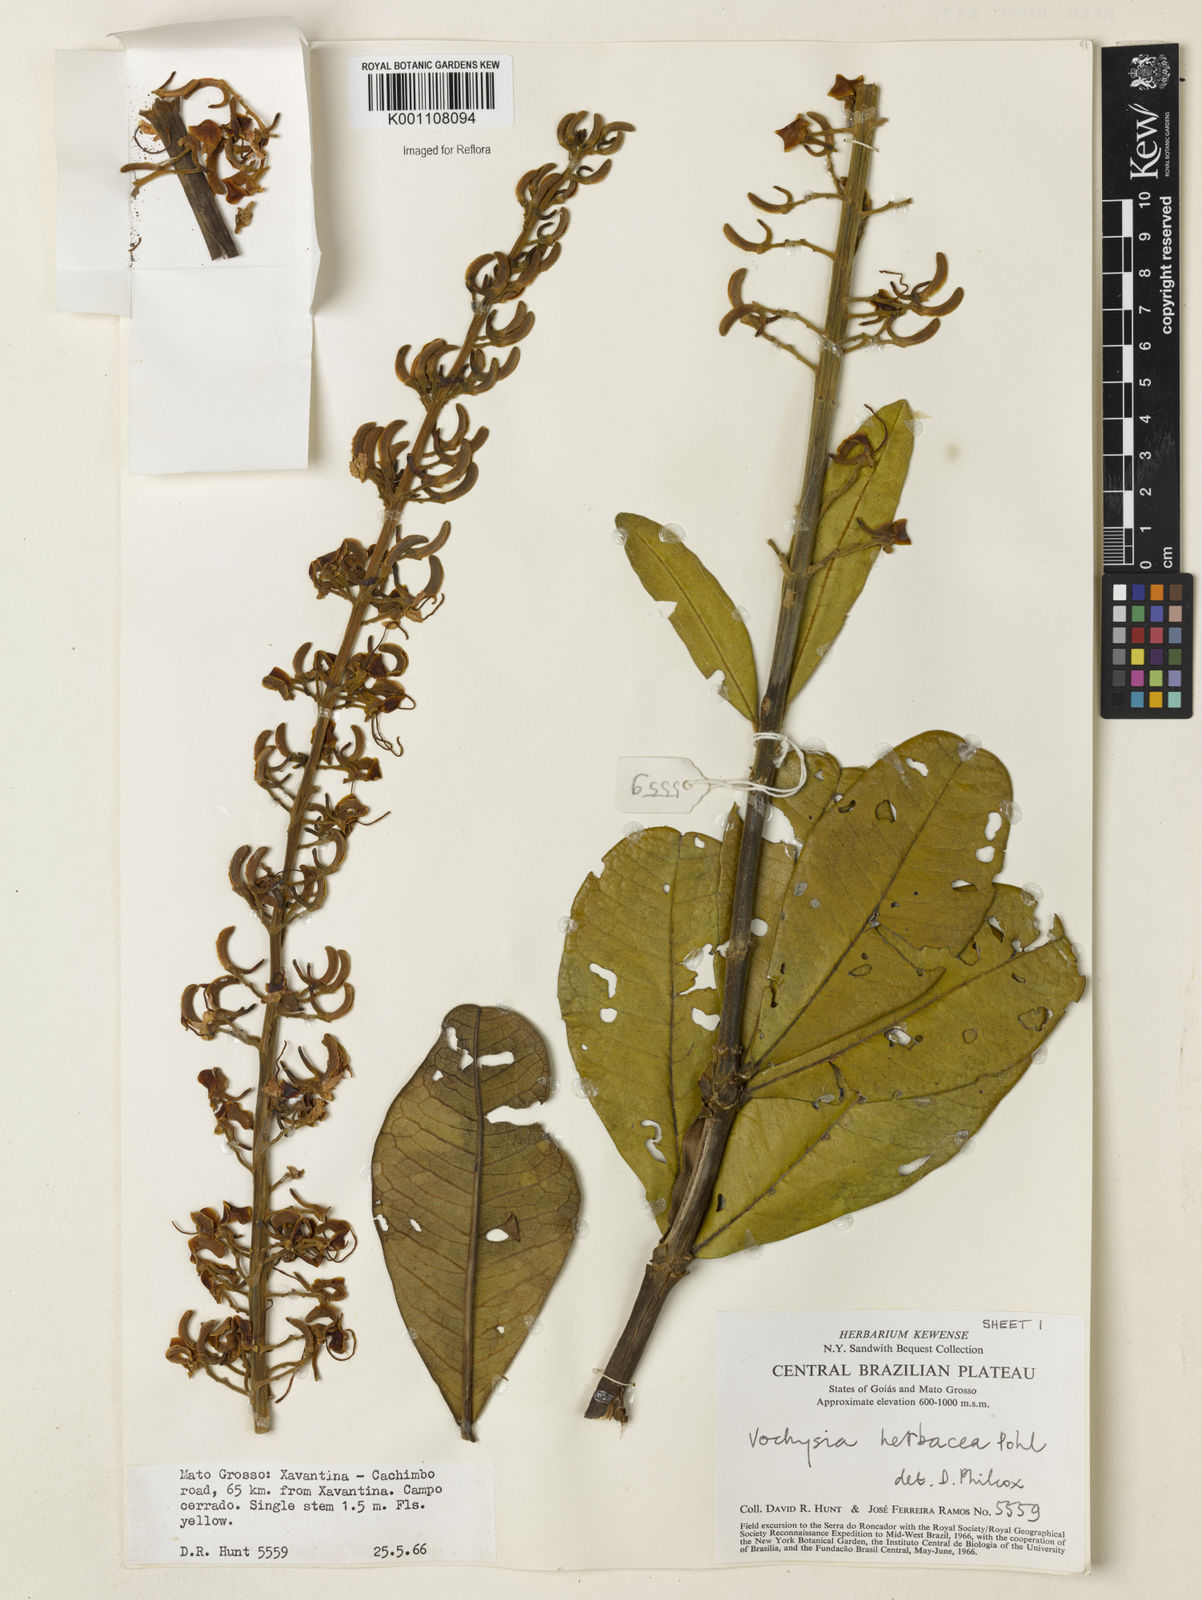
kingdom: Plantae
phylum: Tracheophyta
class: Magnoliopsida
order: Myrtales
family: Vochysiaceae
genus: Vochysia
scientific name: Vochysia herbacea
